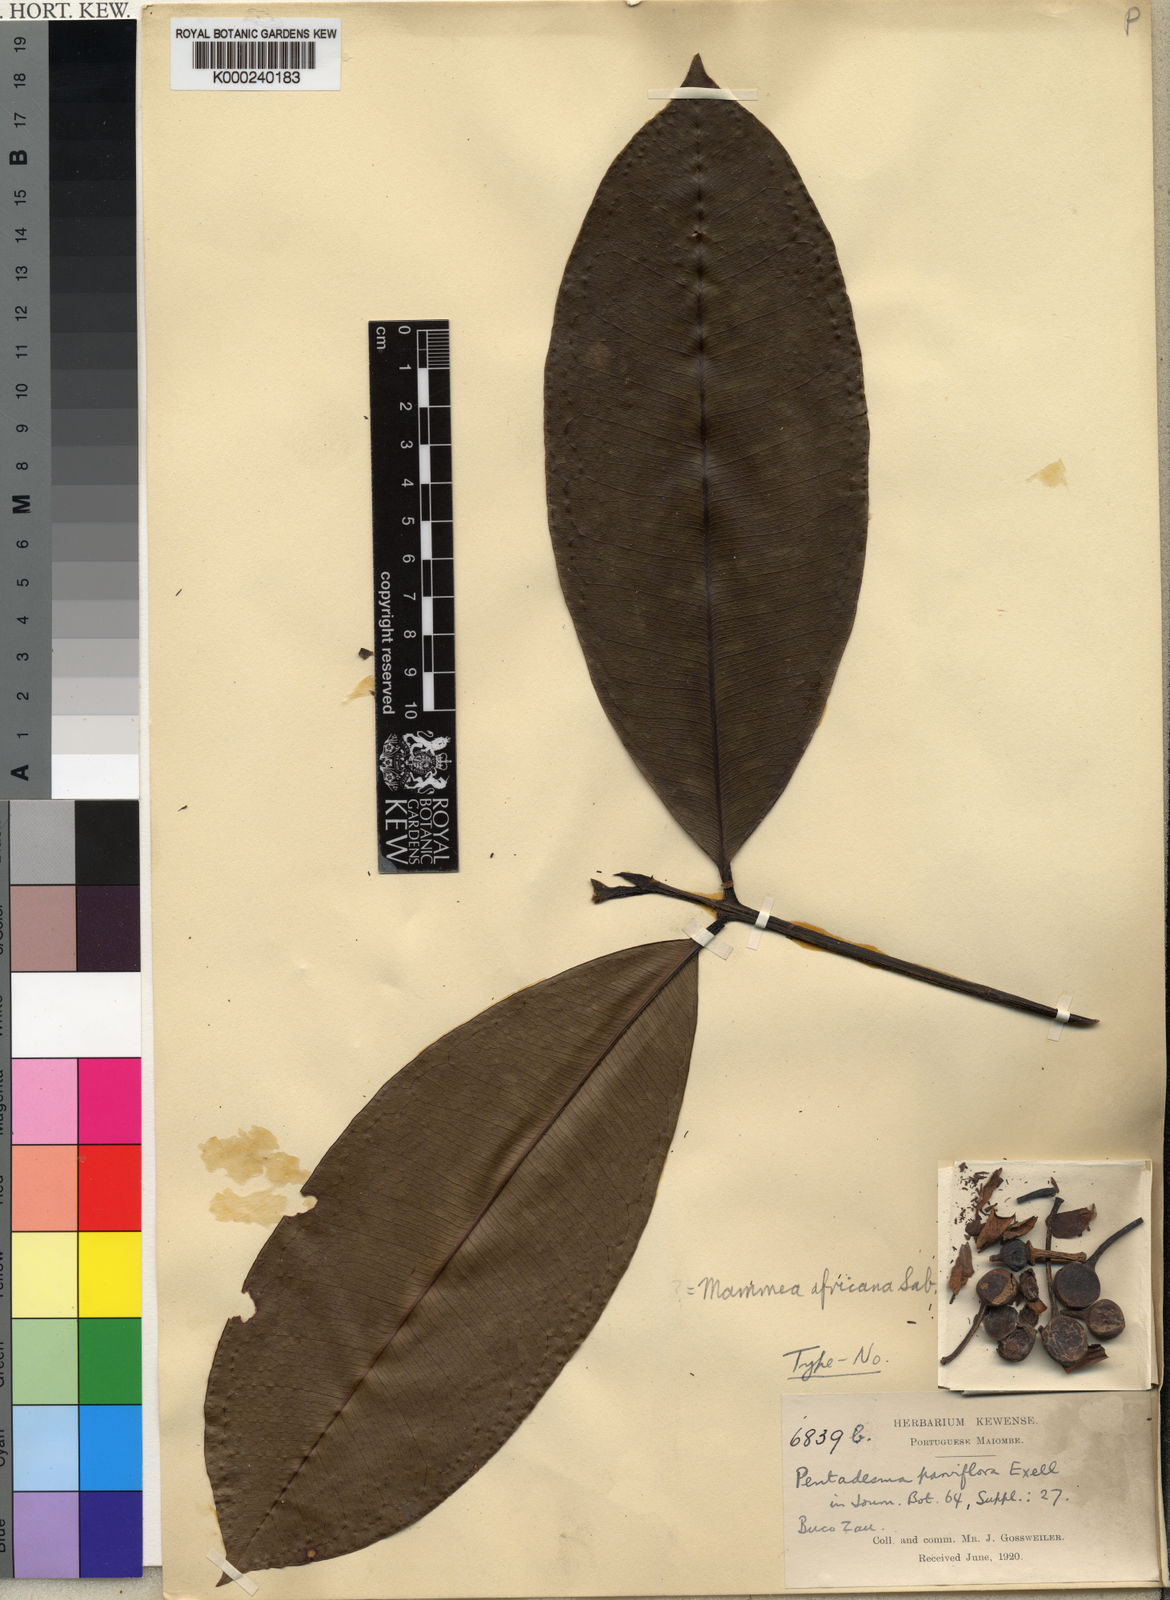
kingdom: Plantae
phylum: Tracheophyta
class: Magnoliopsida
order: Malpighiales
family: Calophyllaceae
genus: Mammea
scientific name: Mammea africana
